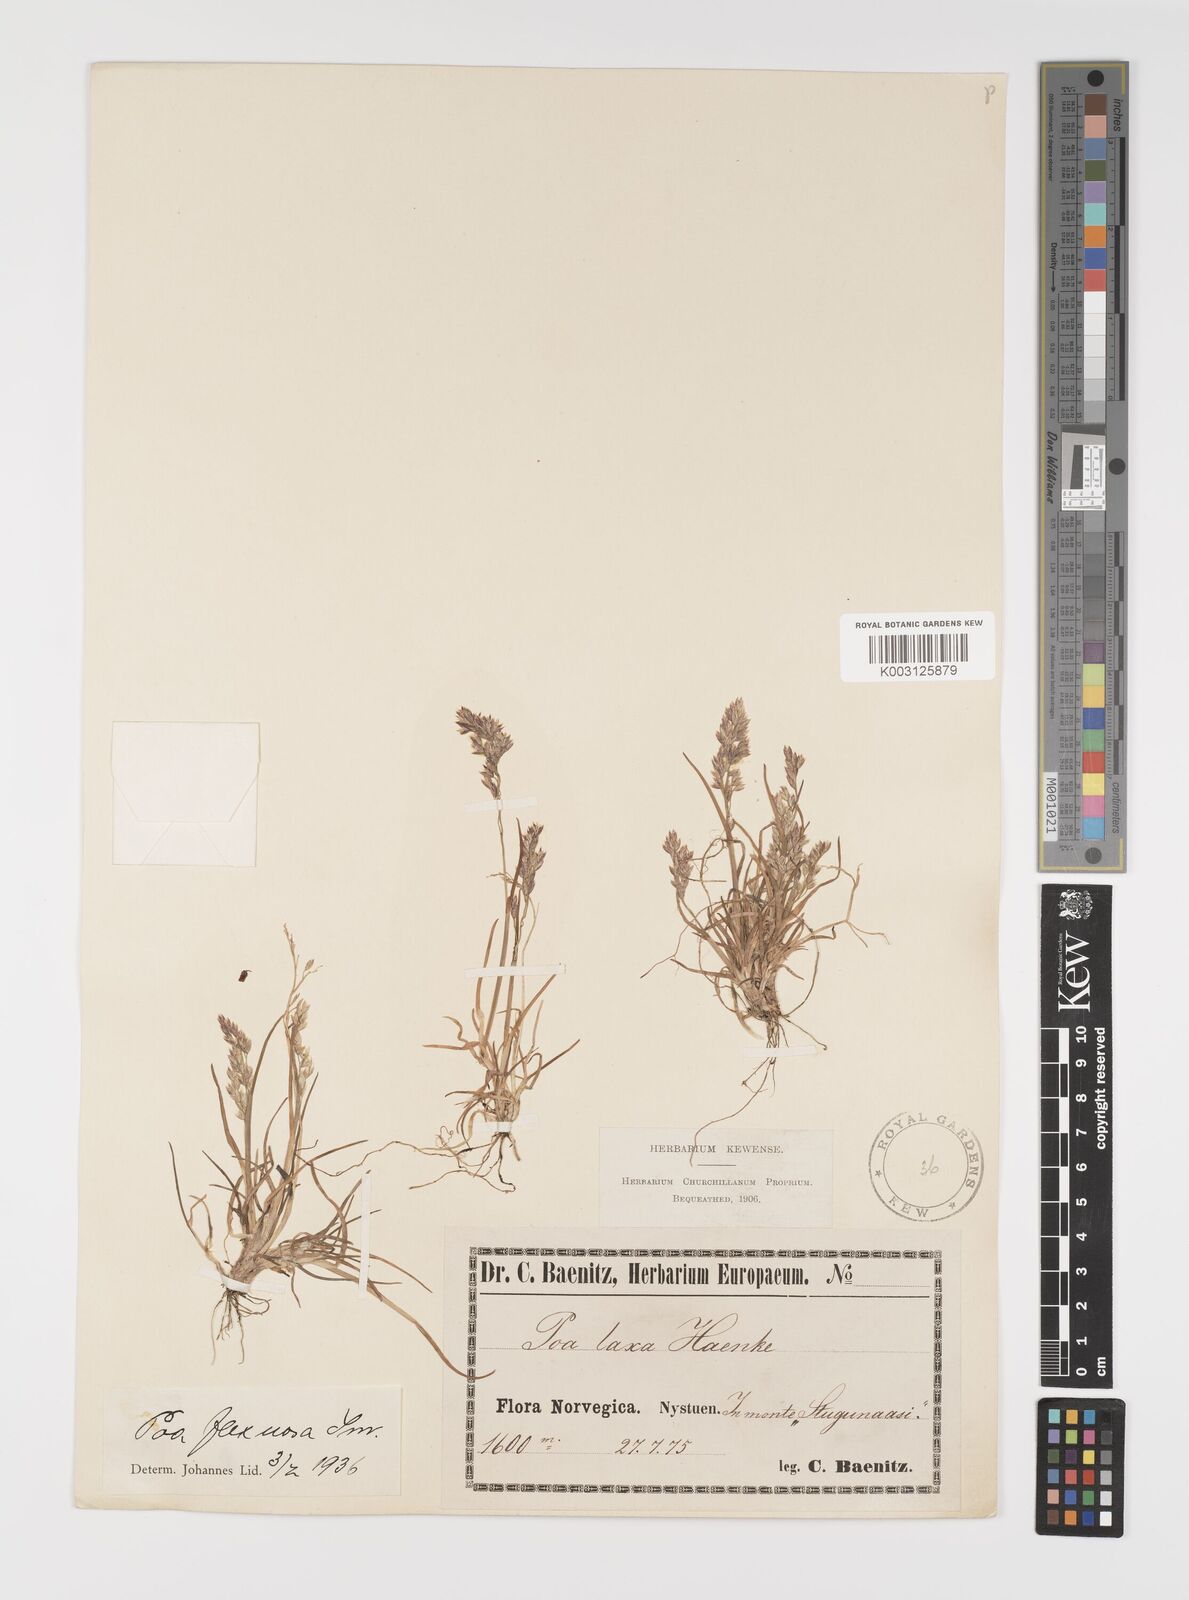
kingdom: Plantae
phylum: Tracheophyta
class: Liliopsida
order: Poales
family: Poaceae
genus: Eragrostis
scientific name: Eragrostis cilianensis
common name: Stinkgrass
